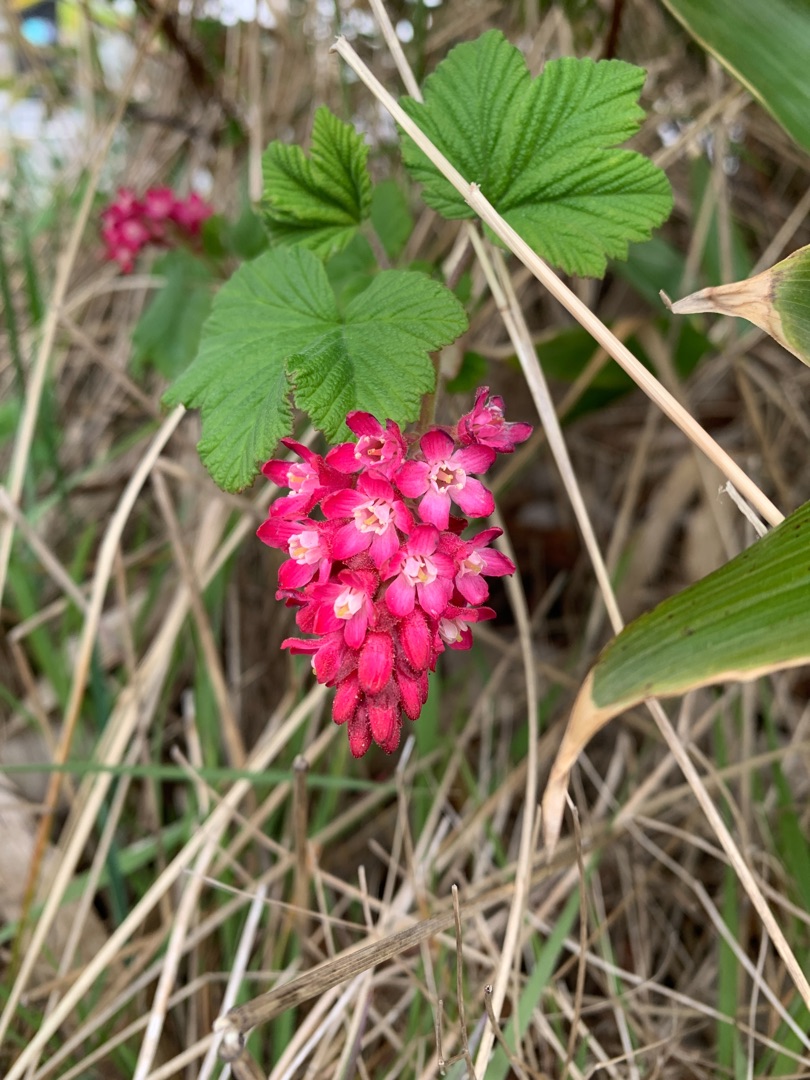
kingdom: Plantae
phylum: Tracheophyta
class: Magnoliopsida
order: Saxifragales
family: Grossulariaceae
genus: Ribes
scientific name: Ribes sanguineum
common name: Blod-ribs
